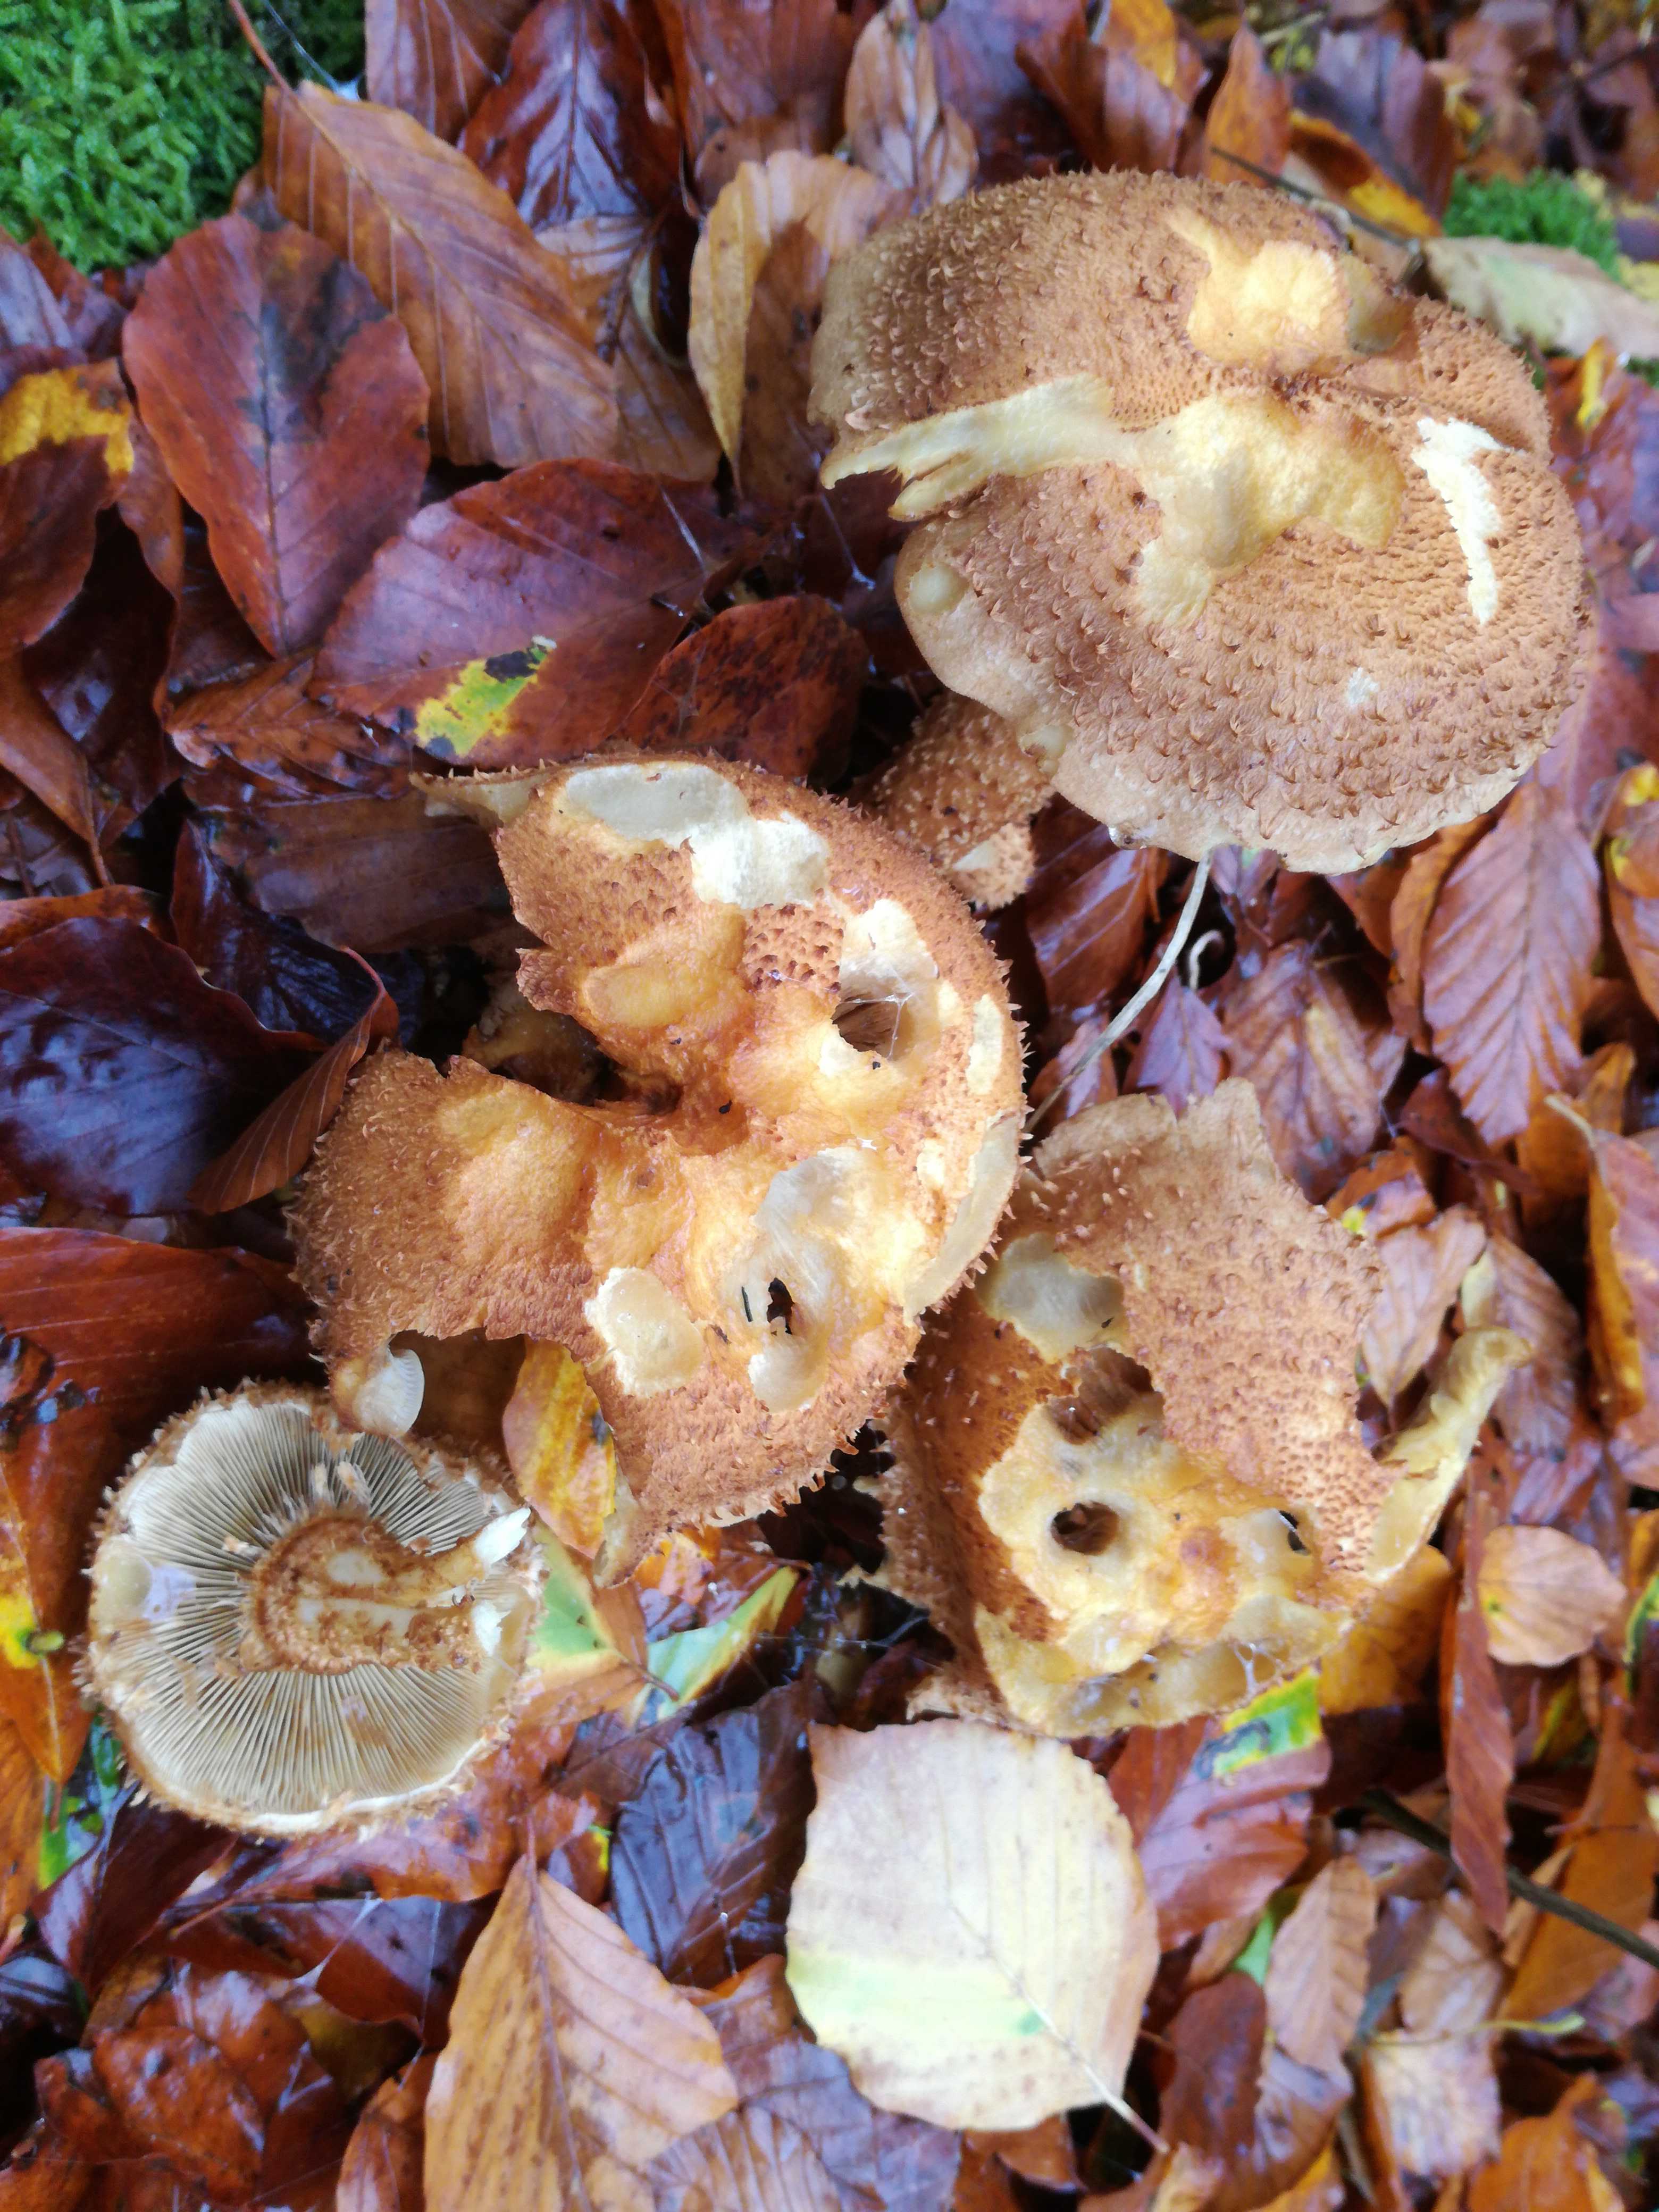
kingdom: Fungi
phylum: Basidiomycota
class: Agaricomycetes
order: Agaricales
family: Strophariaceae
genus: Pholiota
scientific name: Pholiota squarrosa
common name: krumskællet skælhat
